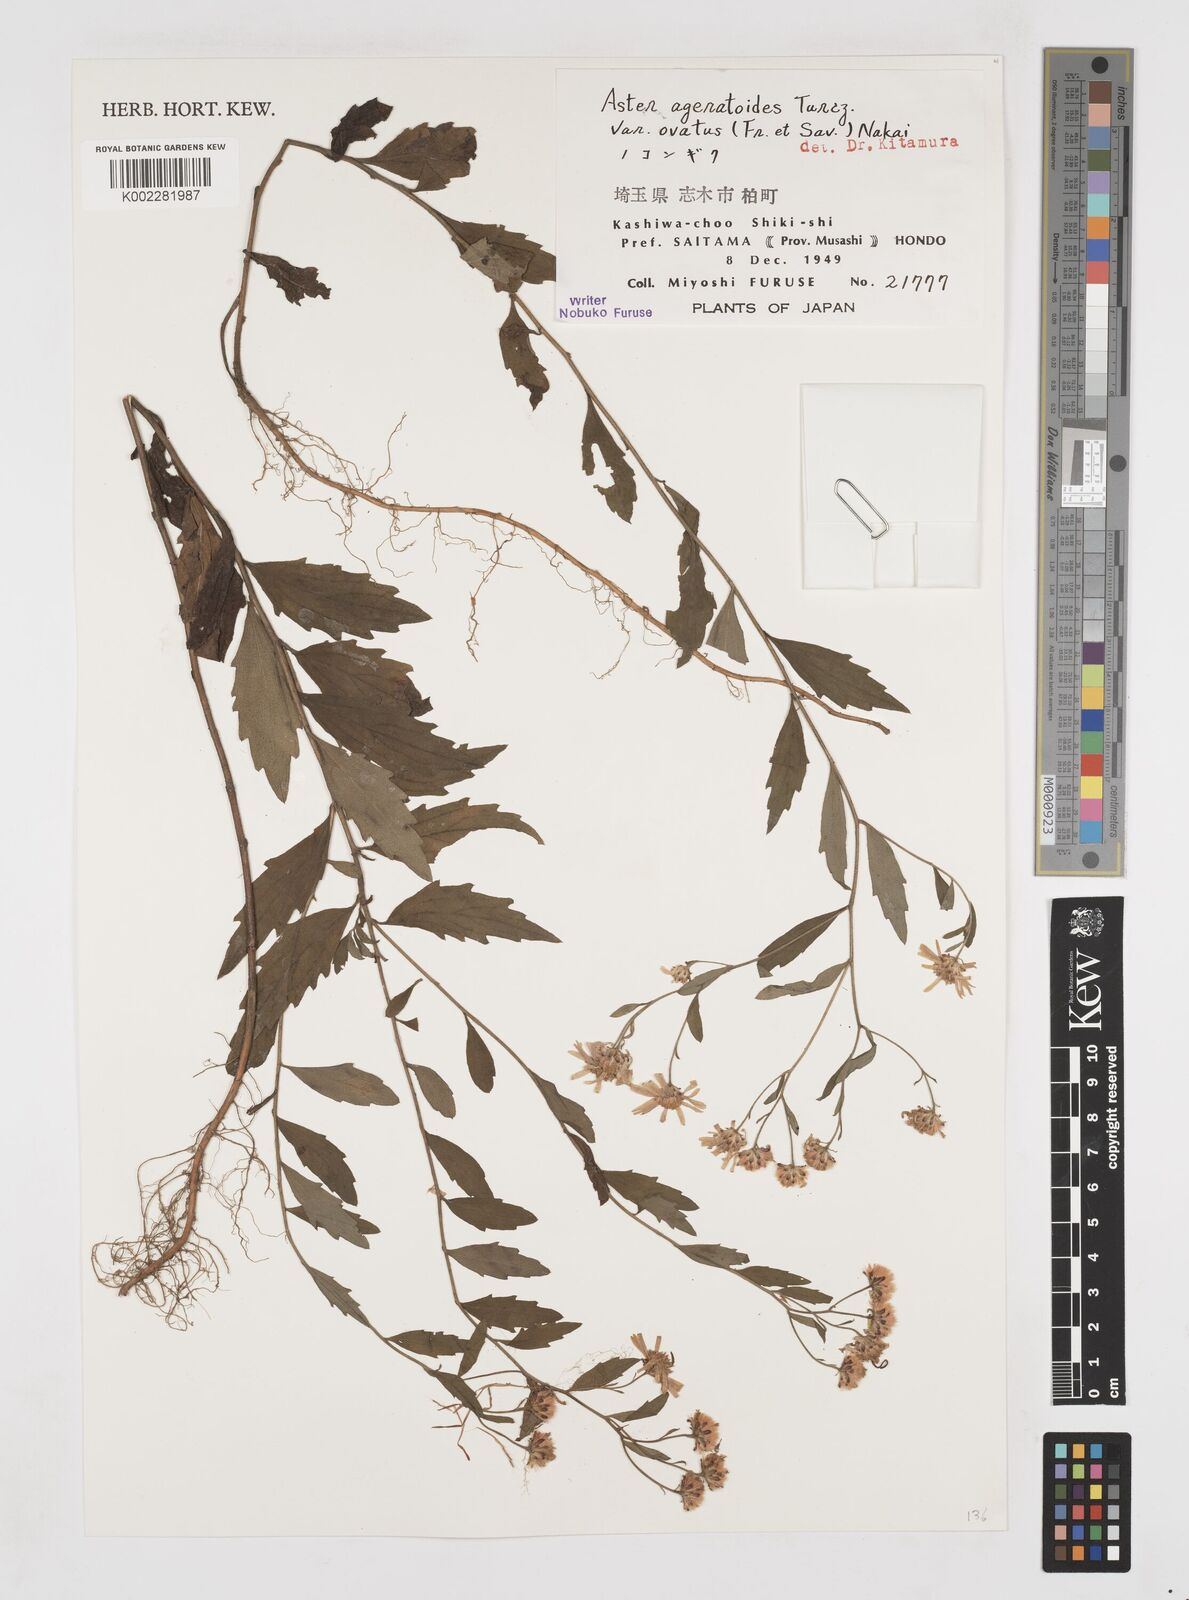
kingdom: Plantae
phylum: Tracheophyta
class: Magnoliopsida
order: Asterales
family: Asteraceae
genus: Galatella
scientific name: Galatella sedifolia
